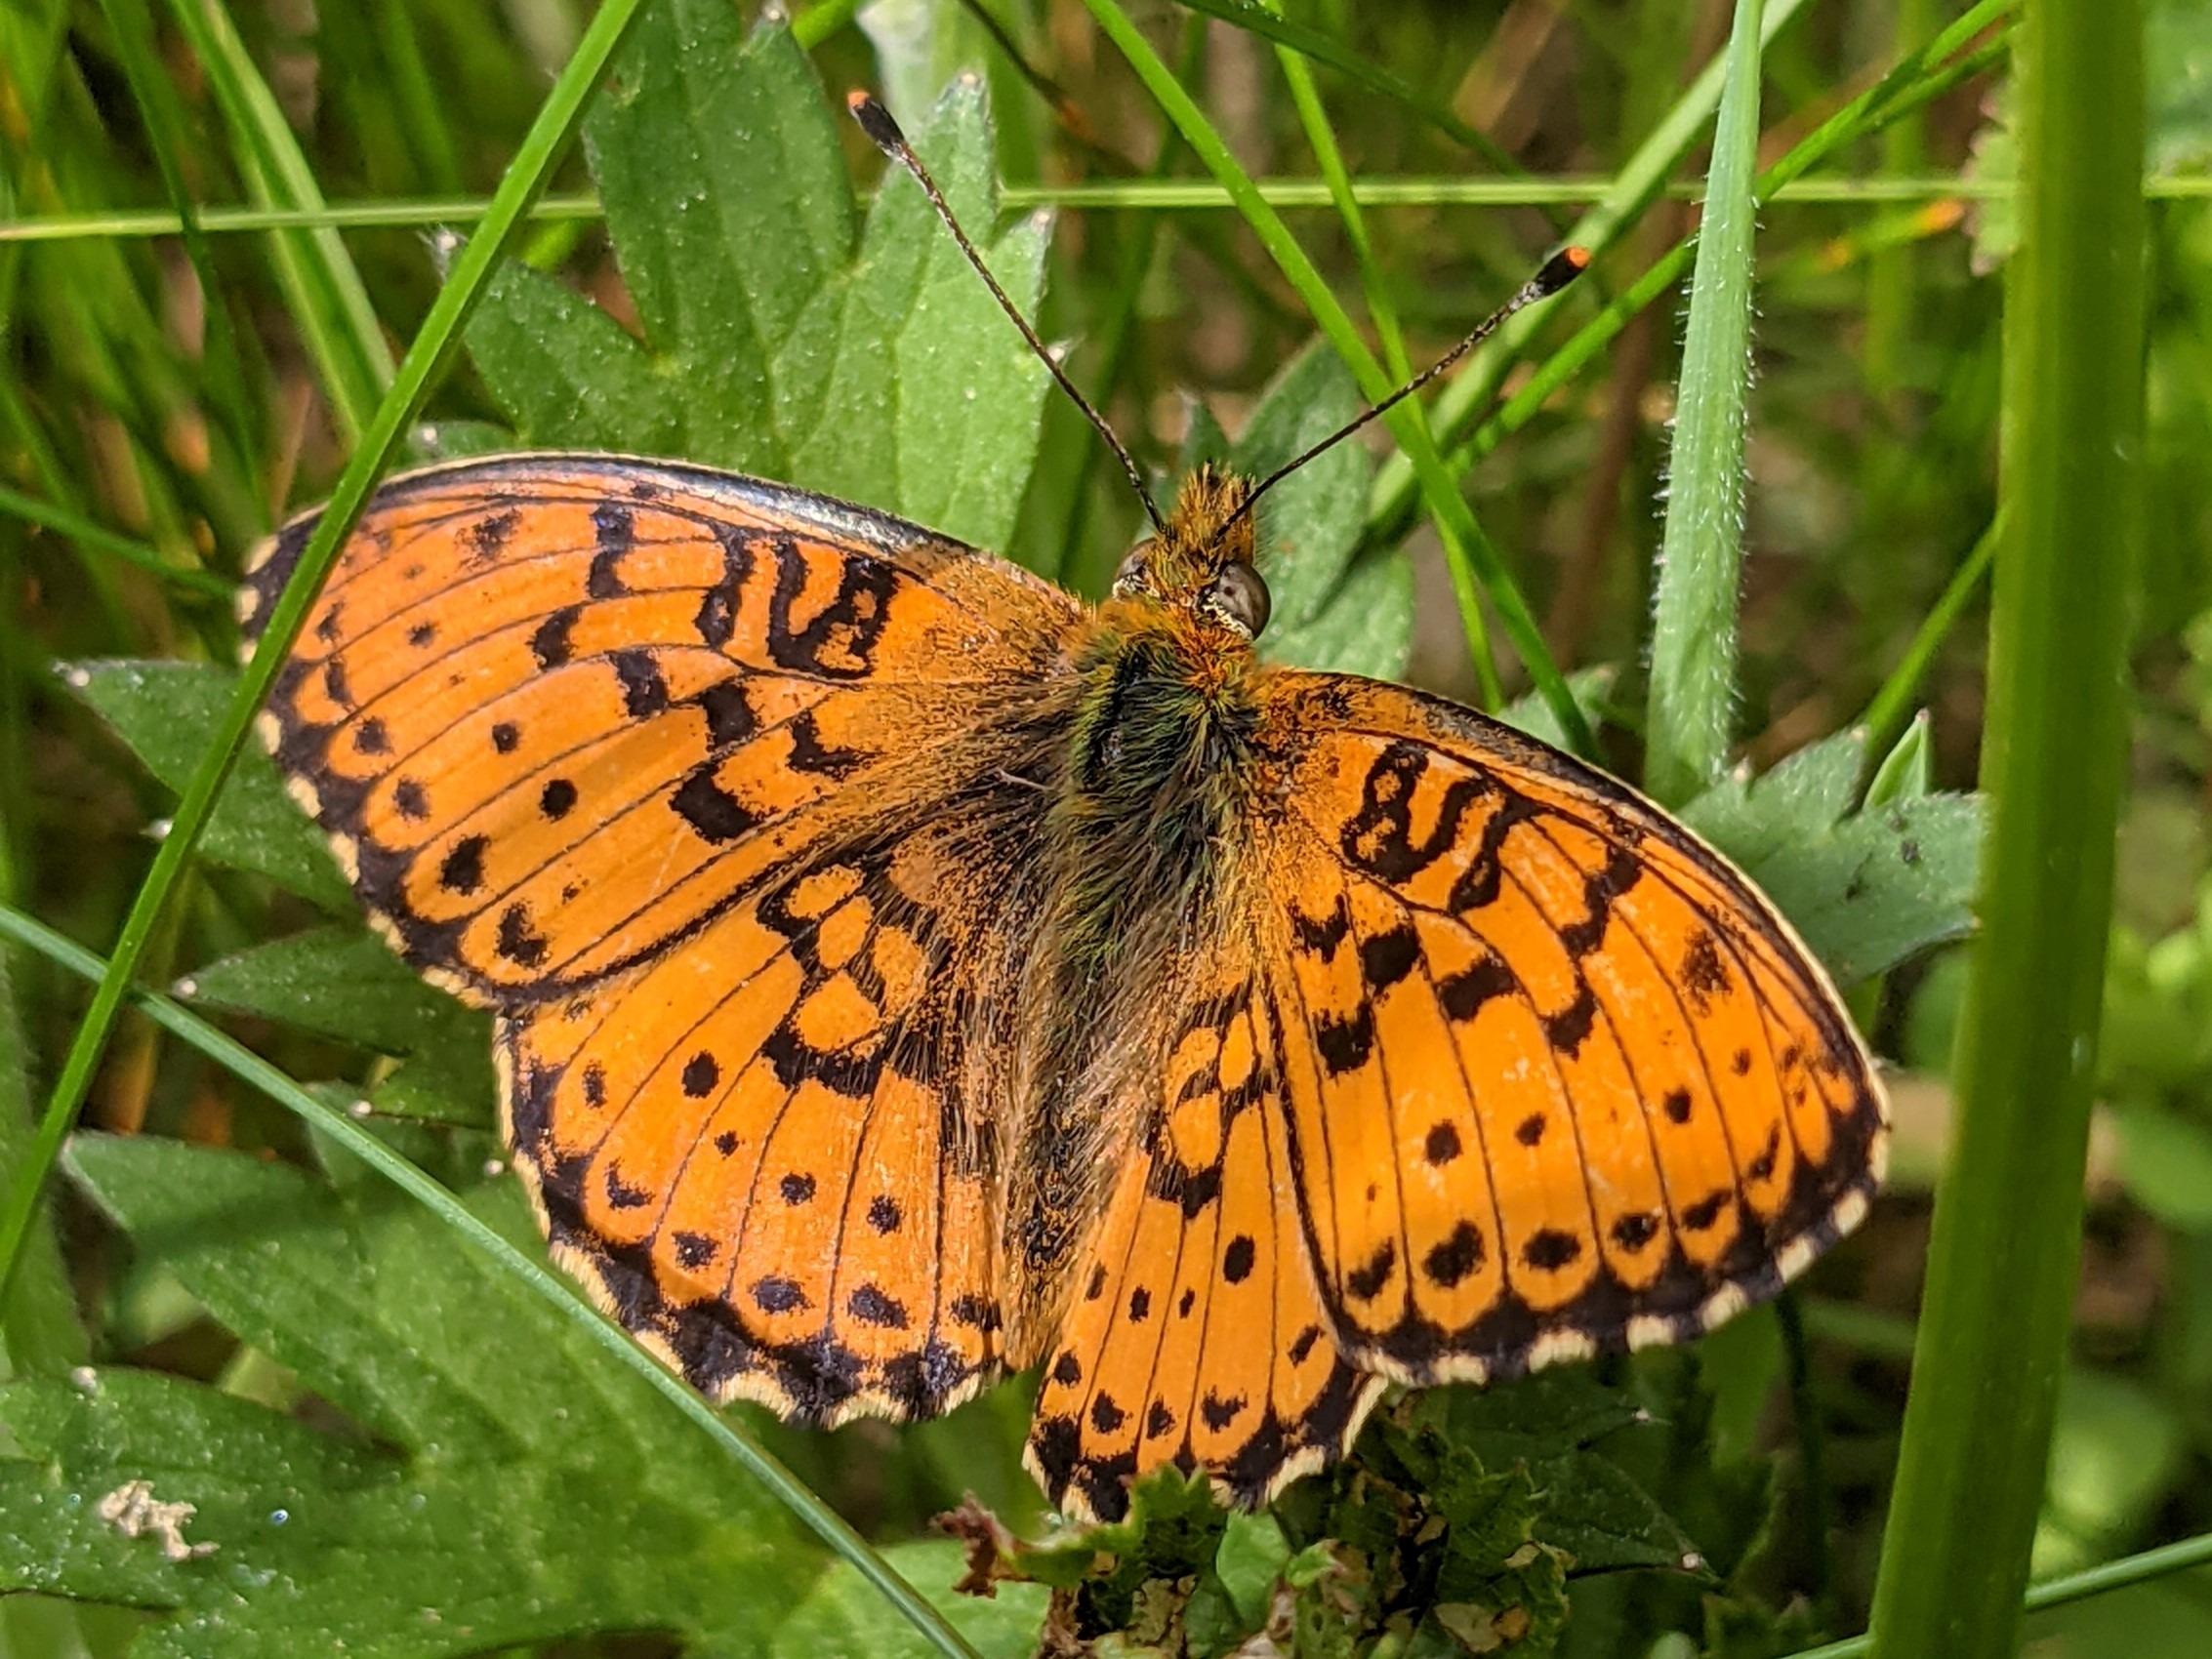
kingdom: Animalia
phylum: Arthropoda
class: Insecta
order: Lepidoptera
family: Nymphalidae
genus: Brenthis
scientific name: Brenthis ino
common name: Engperlemorsommerfugl
